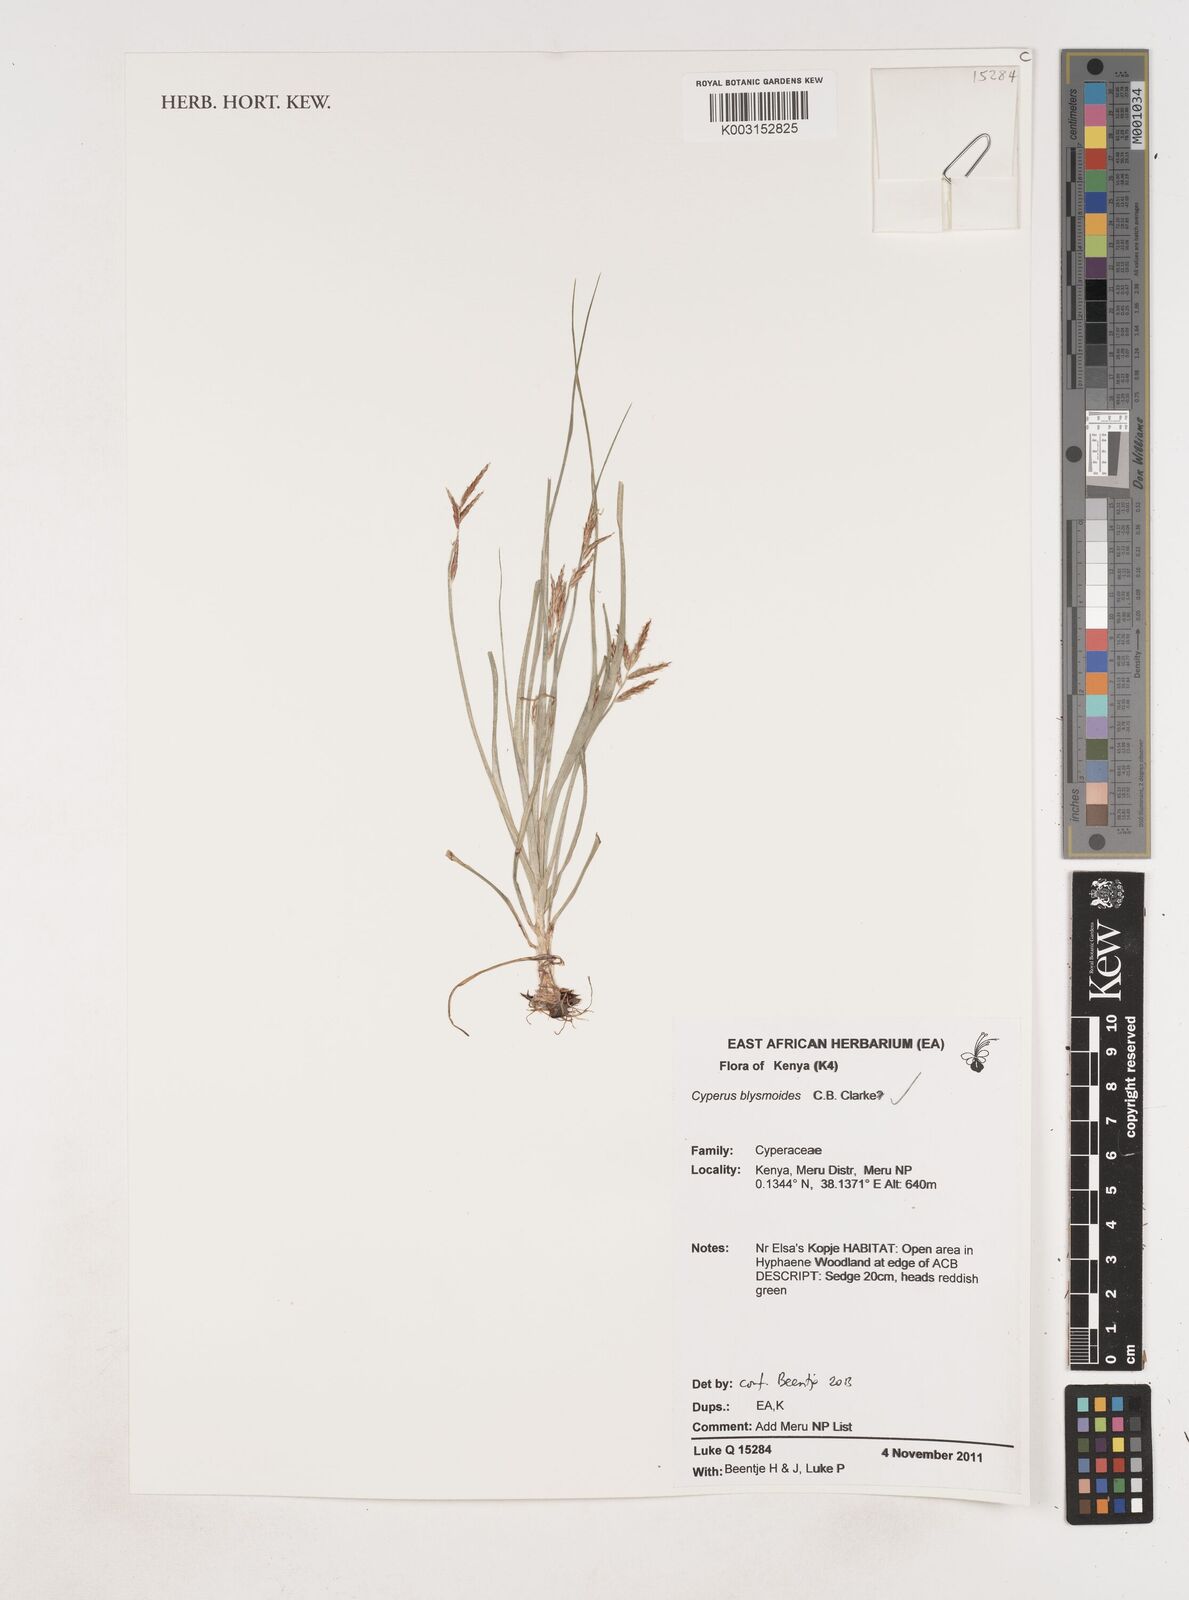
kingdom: Plantae
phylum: Tracheophyta
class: Liliopsida
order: Poales
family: Cyperaceae
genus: Cyperus
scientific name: Cyperus blysmoides
